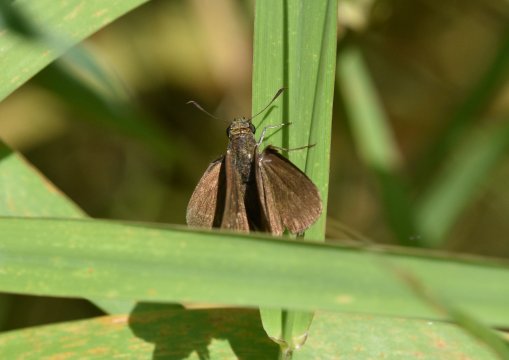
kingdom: Animalia
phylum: Arthropoda
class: Insecta
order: Lepidoptera
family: Hesperiidae
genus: Euphyes
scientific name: Euphyes vestris
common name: Dun Skipper
